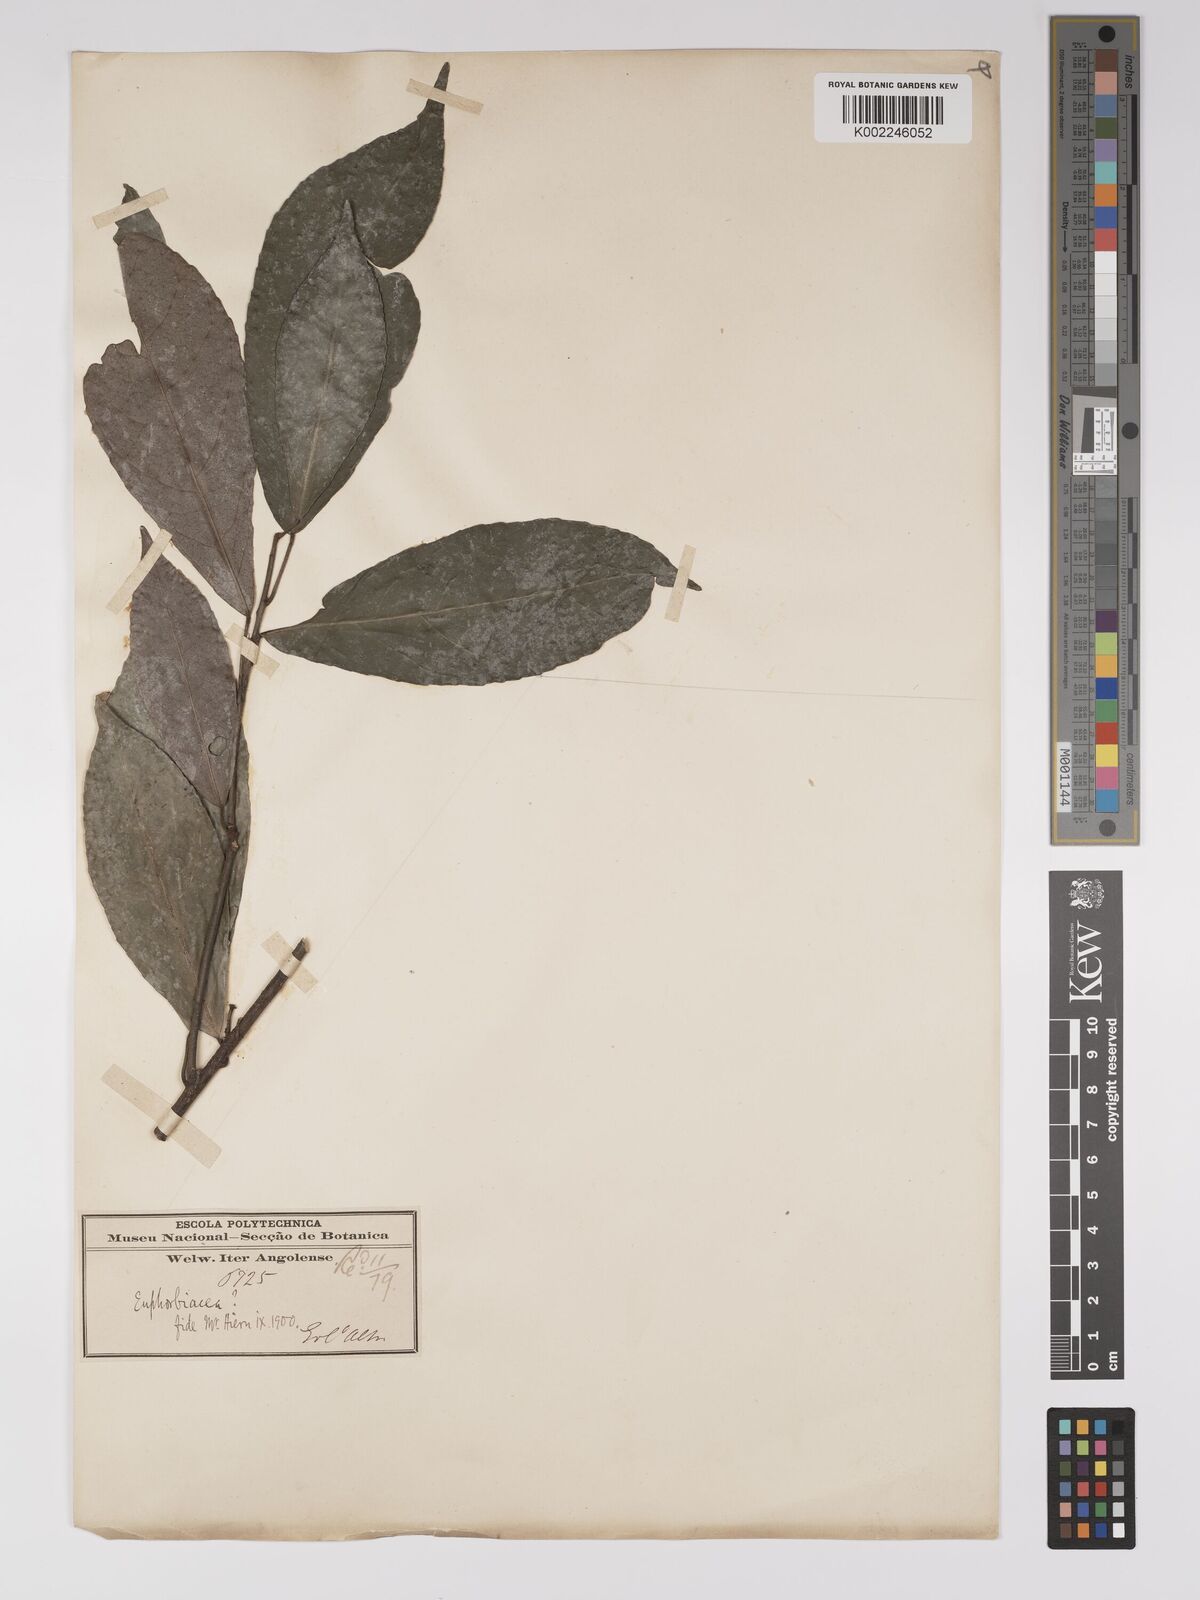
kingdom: Plantae
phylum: Tracheophyta
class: Magnoliopsida
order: Malpighiales
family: Euphorbiaceae
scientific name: Euphorbiaceae
